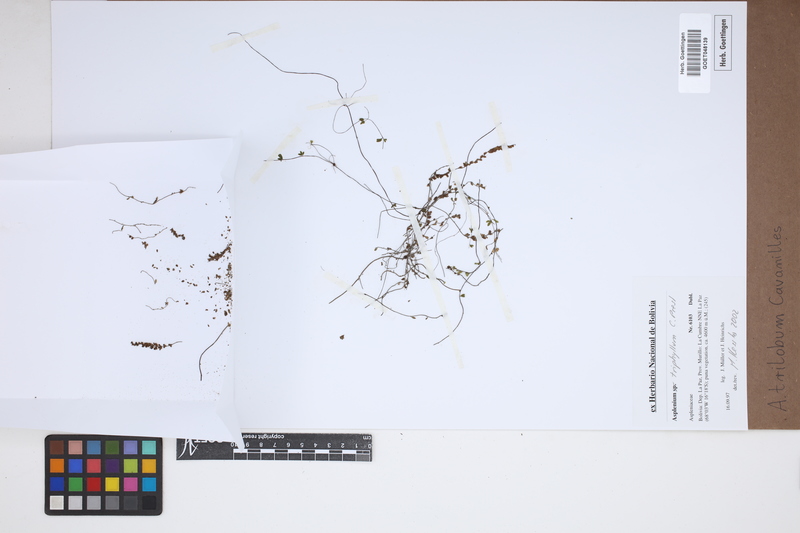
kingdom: Plantae
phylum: Tracheophyta
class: Polypodiopsida
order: Polypodiales
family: Aspleniaceae
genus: Asplenium
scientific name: Asplenium trilobum
